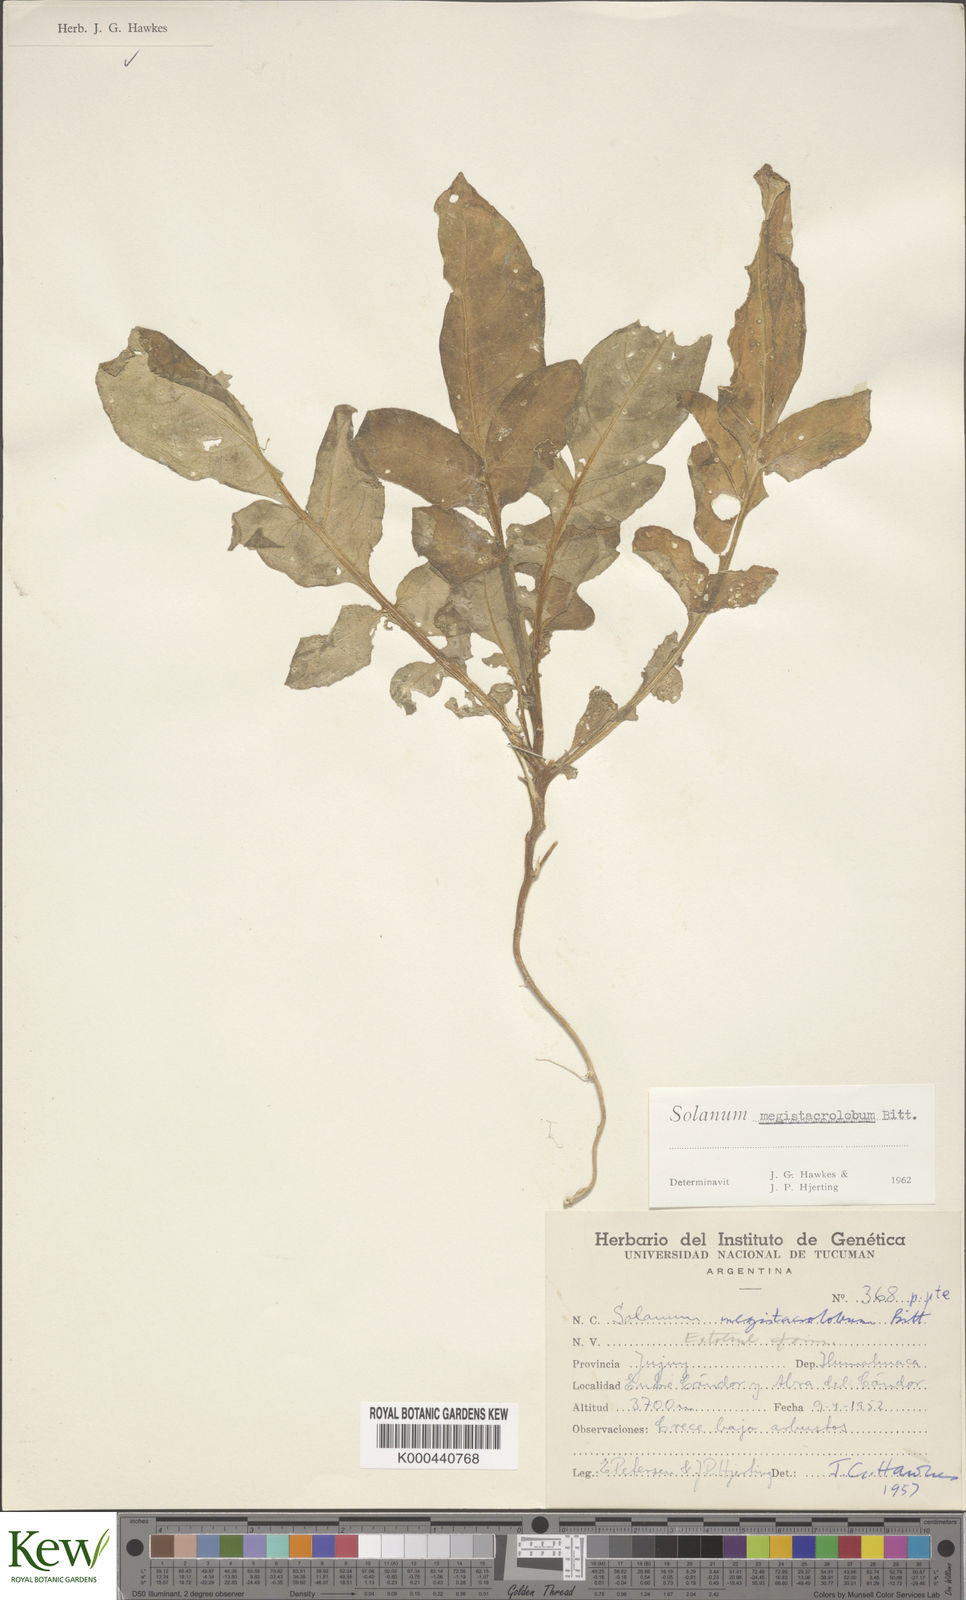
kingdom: Plantae
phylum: Tracheophyta
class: Magnoliopsida
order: Solanales
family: Solanaceae
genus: Solanum
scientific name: Solanum boliviense
